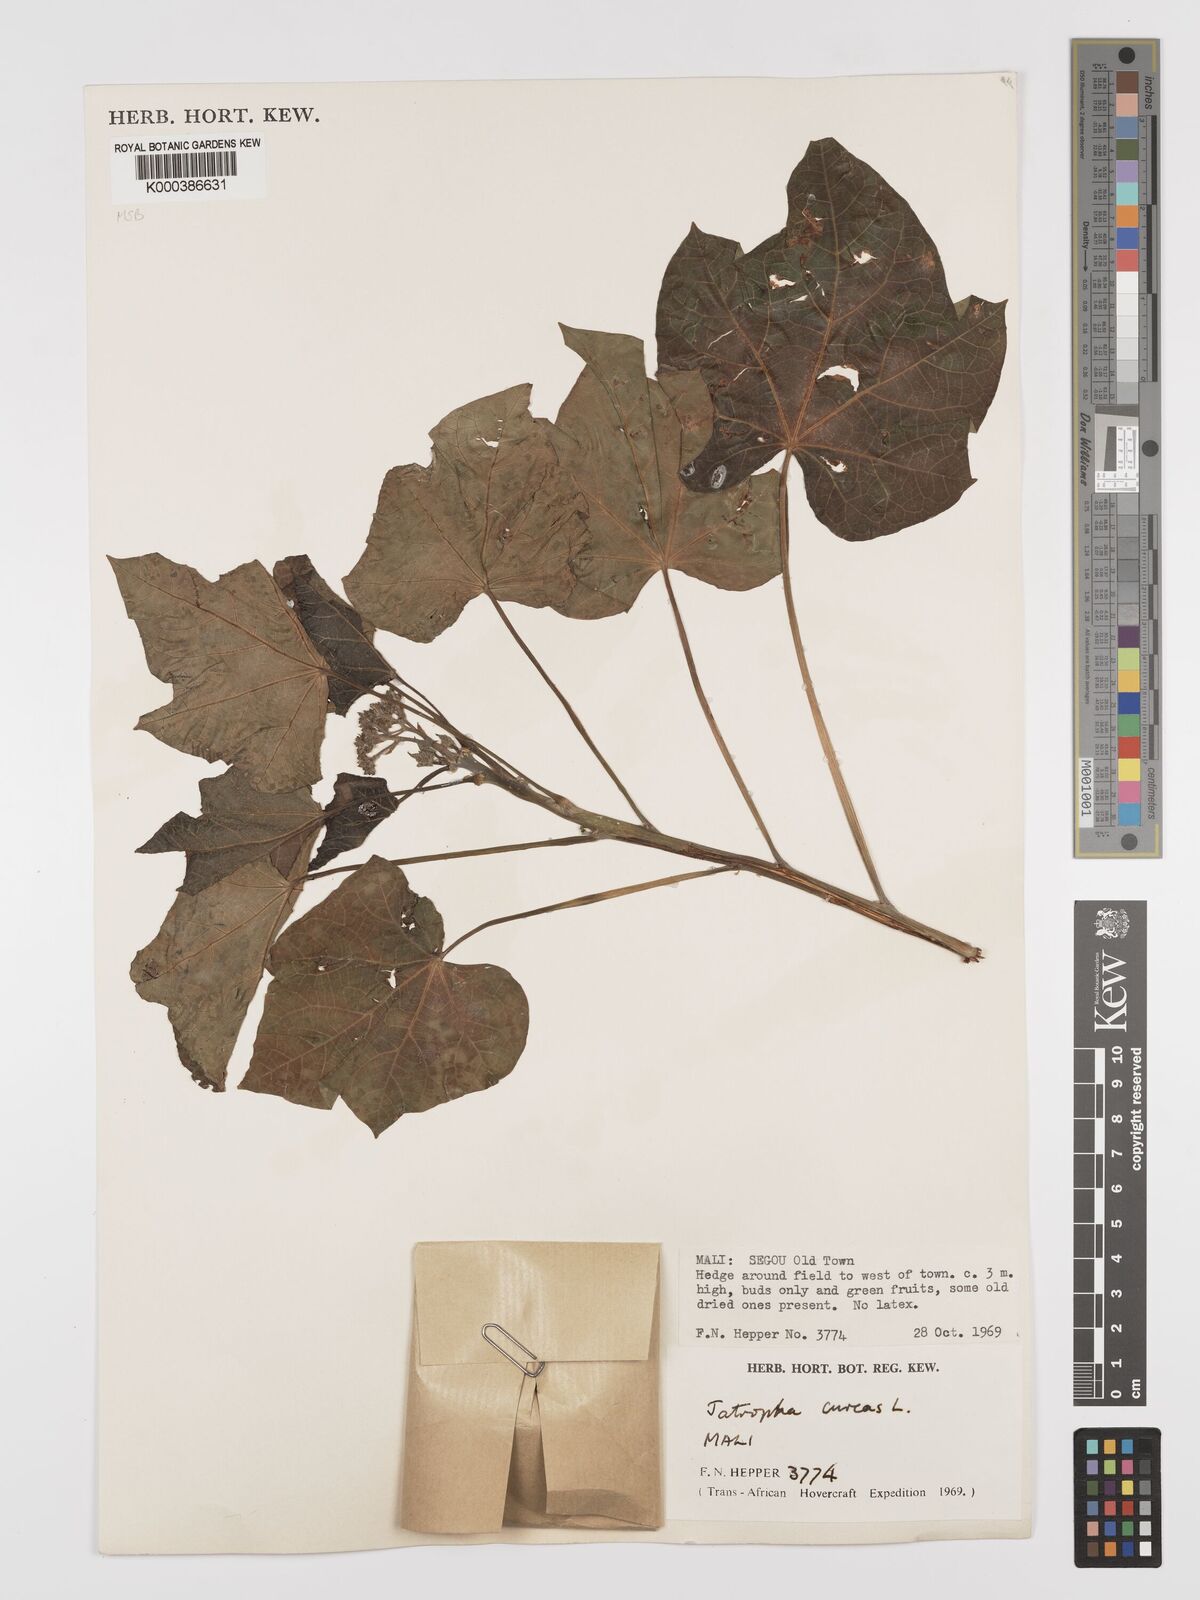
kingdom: Plantae
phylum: Tracheophyta
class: Magnoliopsida
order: Malpighiales
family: Euphorbiaceae
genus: Jatropha
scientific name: Jatropha curcas
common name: Barbados nut
